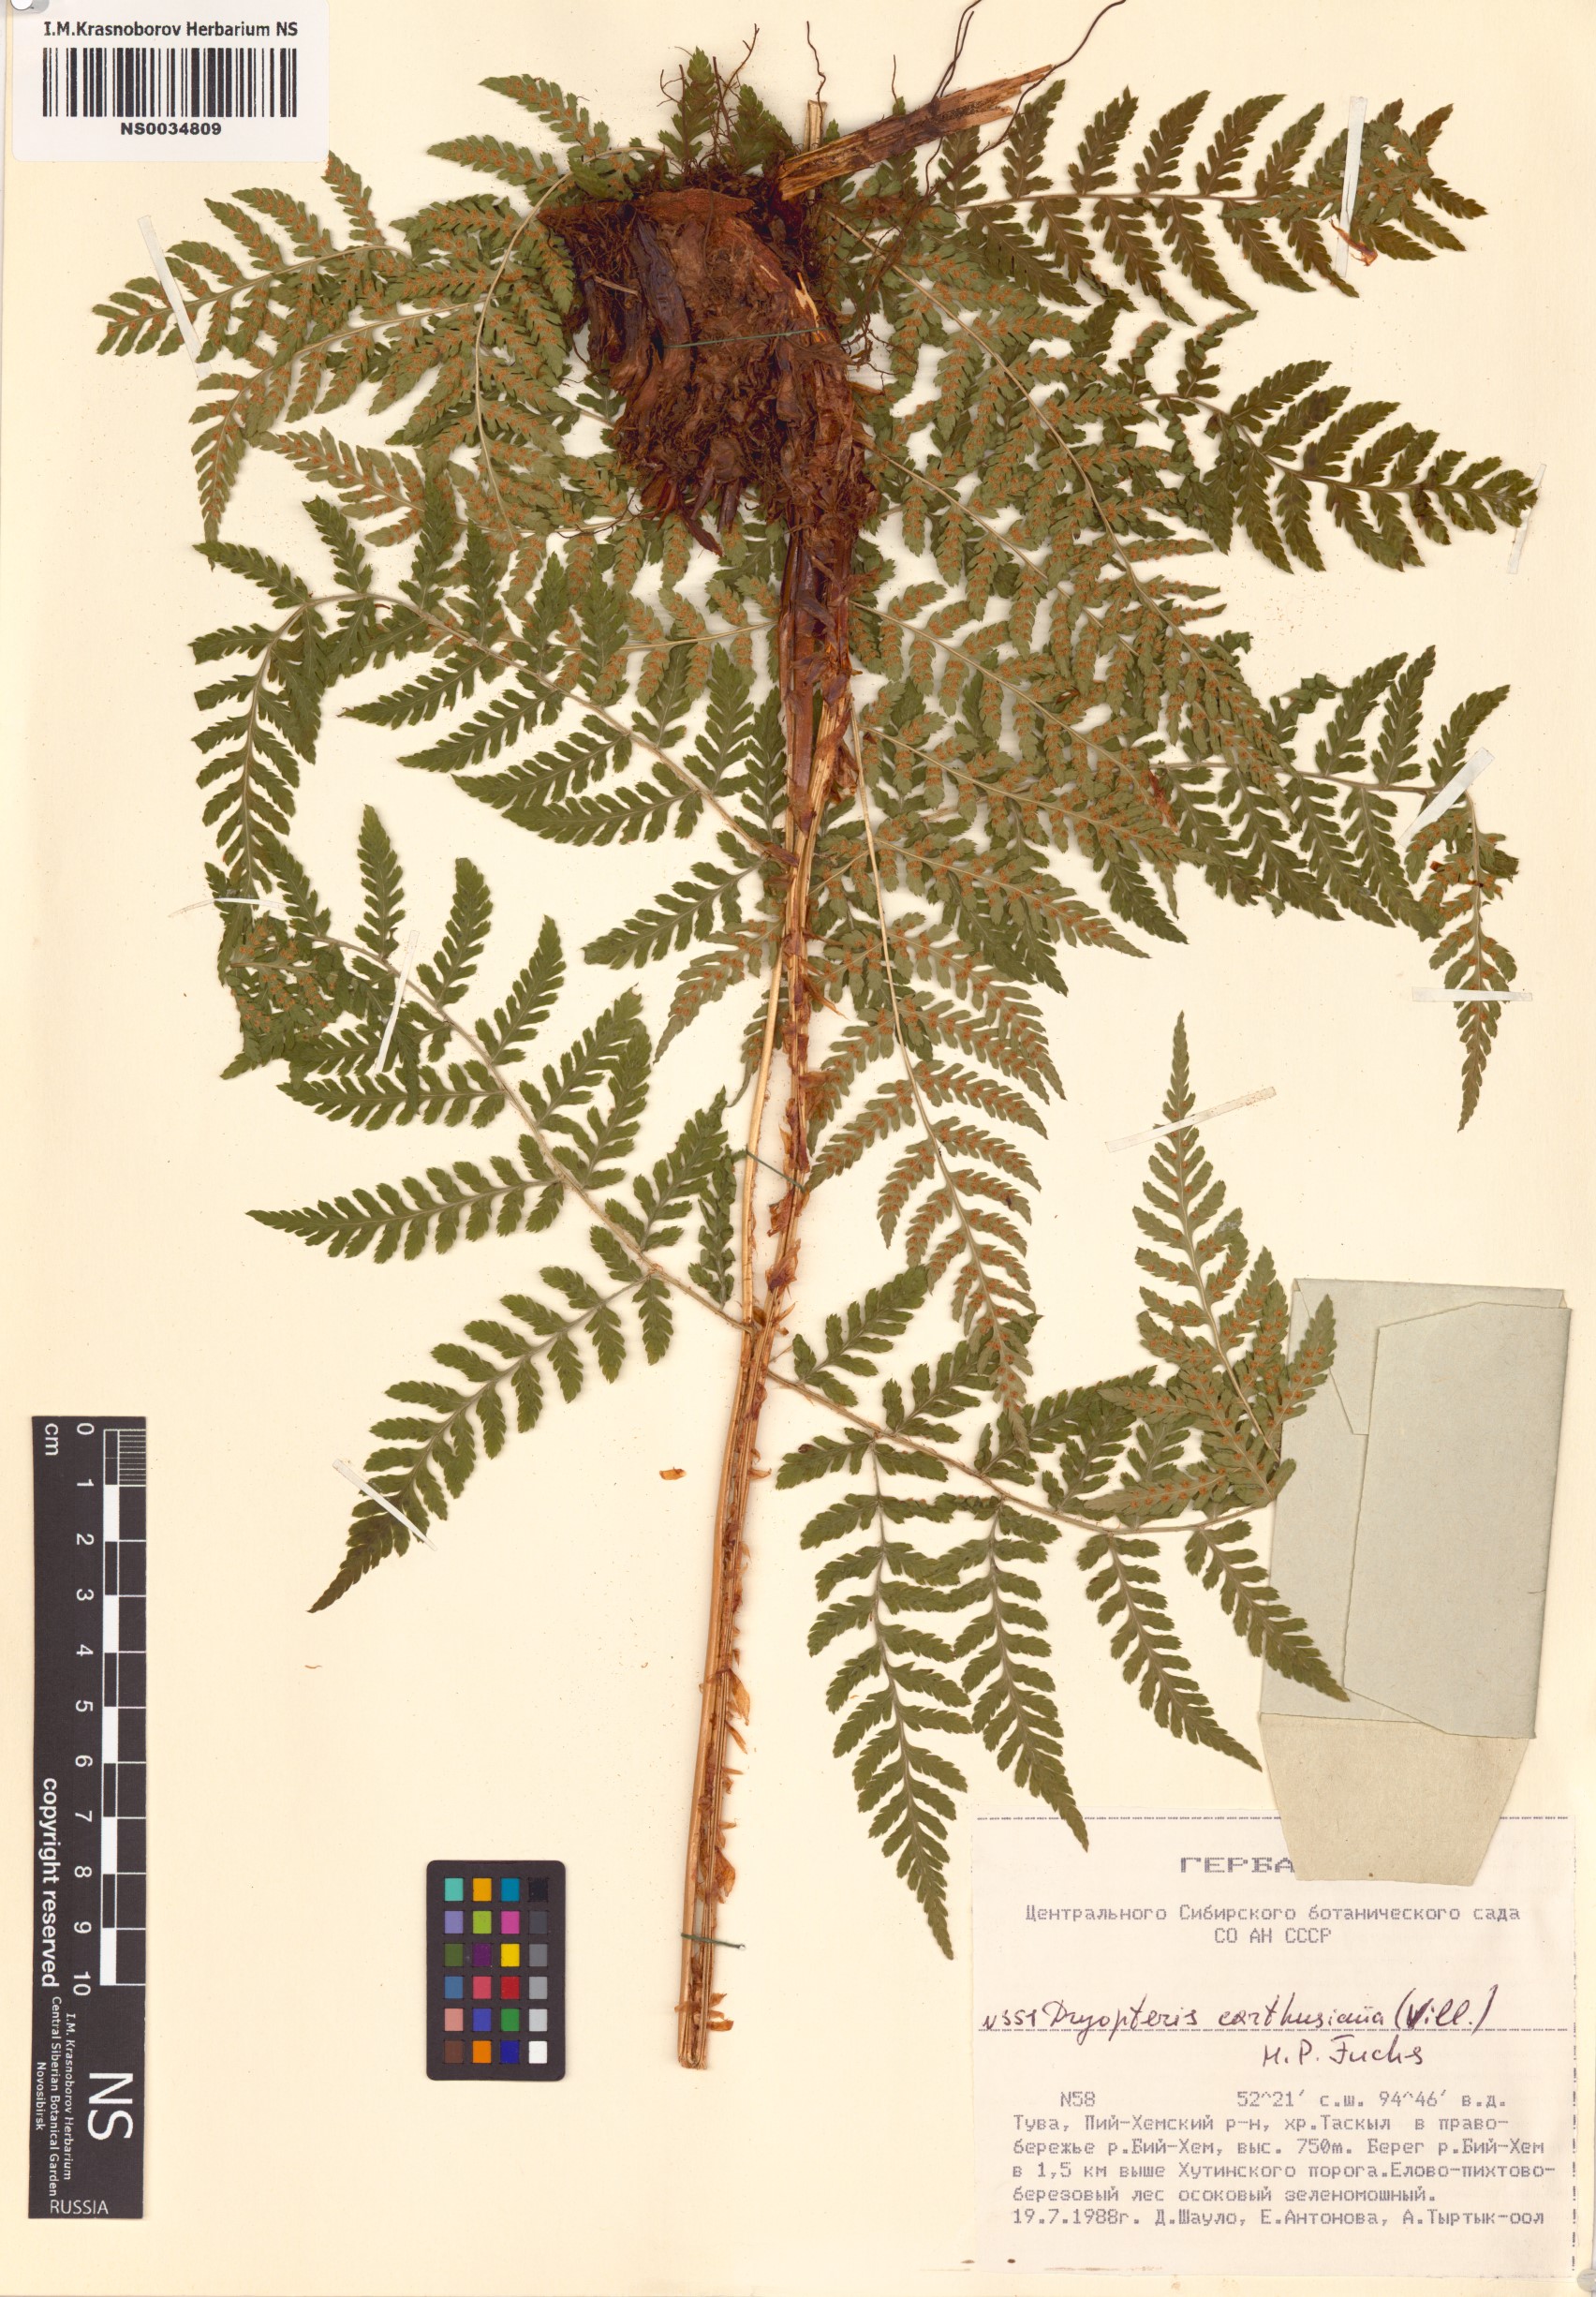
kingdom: Plantae
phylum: Tracheophyta
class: Polypodiopsida
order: Polypodiales
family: Dryopteridaceae
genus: Dryopteris
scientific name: Dryopteris carthusiana
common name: Narrow buckler-fern
